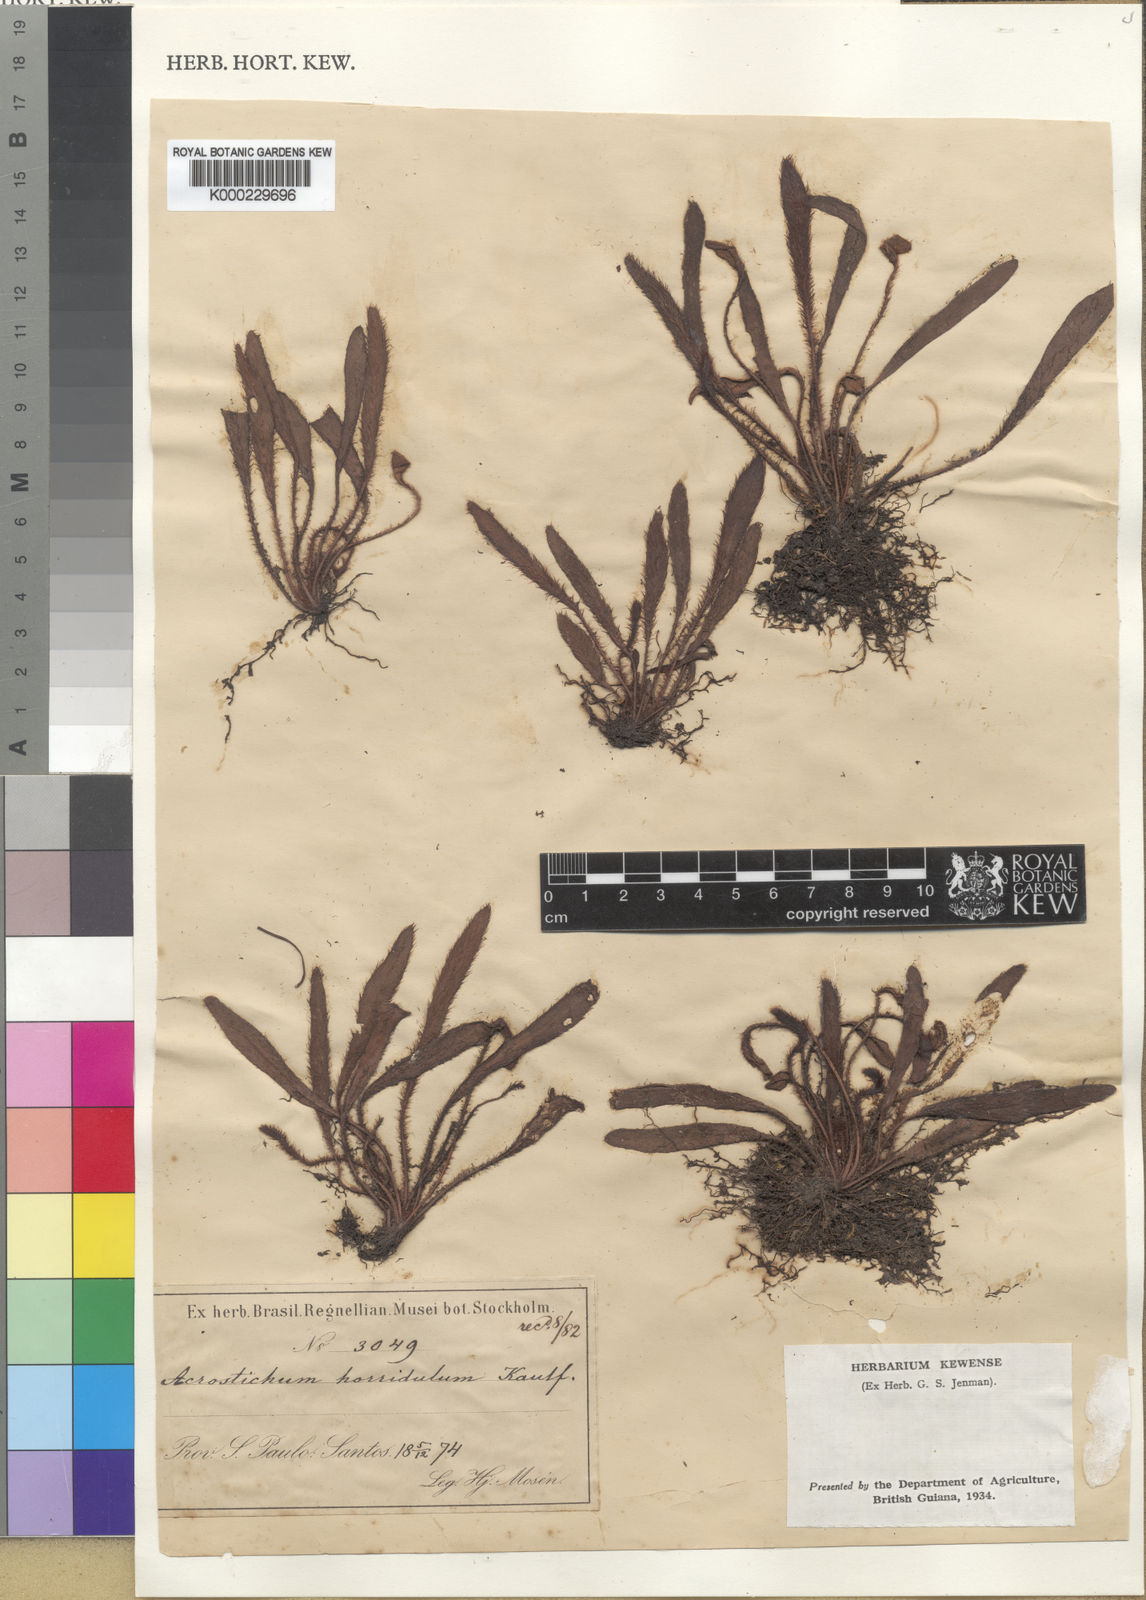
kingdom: Plantae
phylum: Tracheophyta
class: Polypodiopsida
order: Polypodiales
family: Dryopteridaceae
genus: Elaphoglossum
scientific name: Elaphoglossum horridulum
